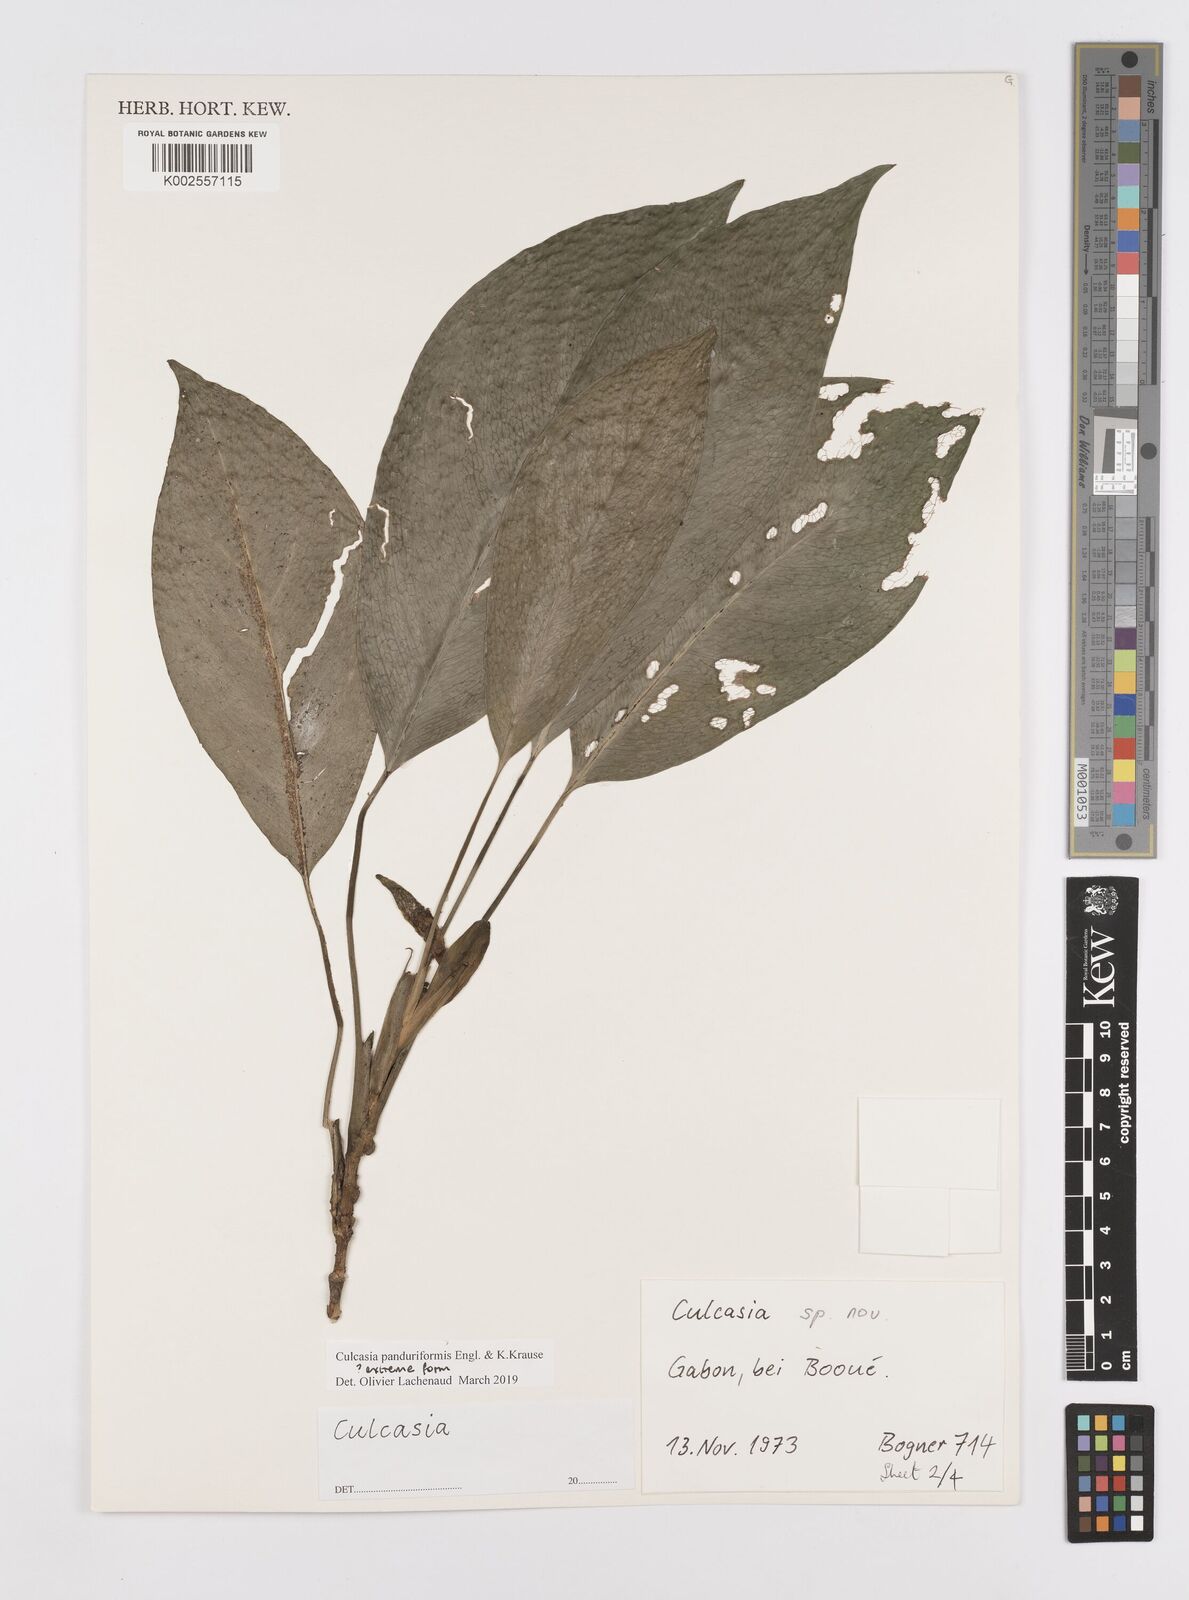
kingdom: Plantae
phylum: Tracheophyta
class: Liliopsida
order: Alismatales
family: Araceae
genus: Culcasia
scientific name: Culcasia panduriformis
